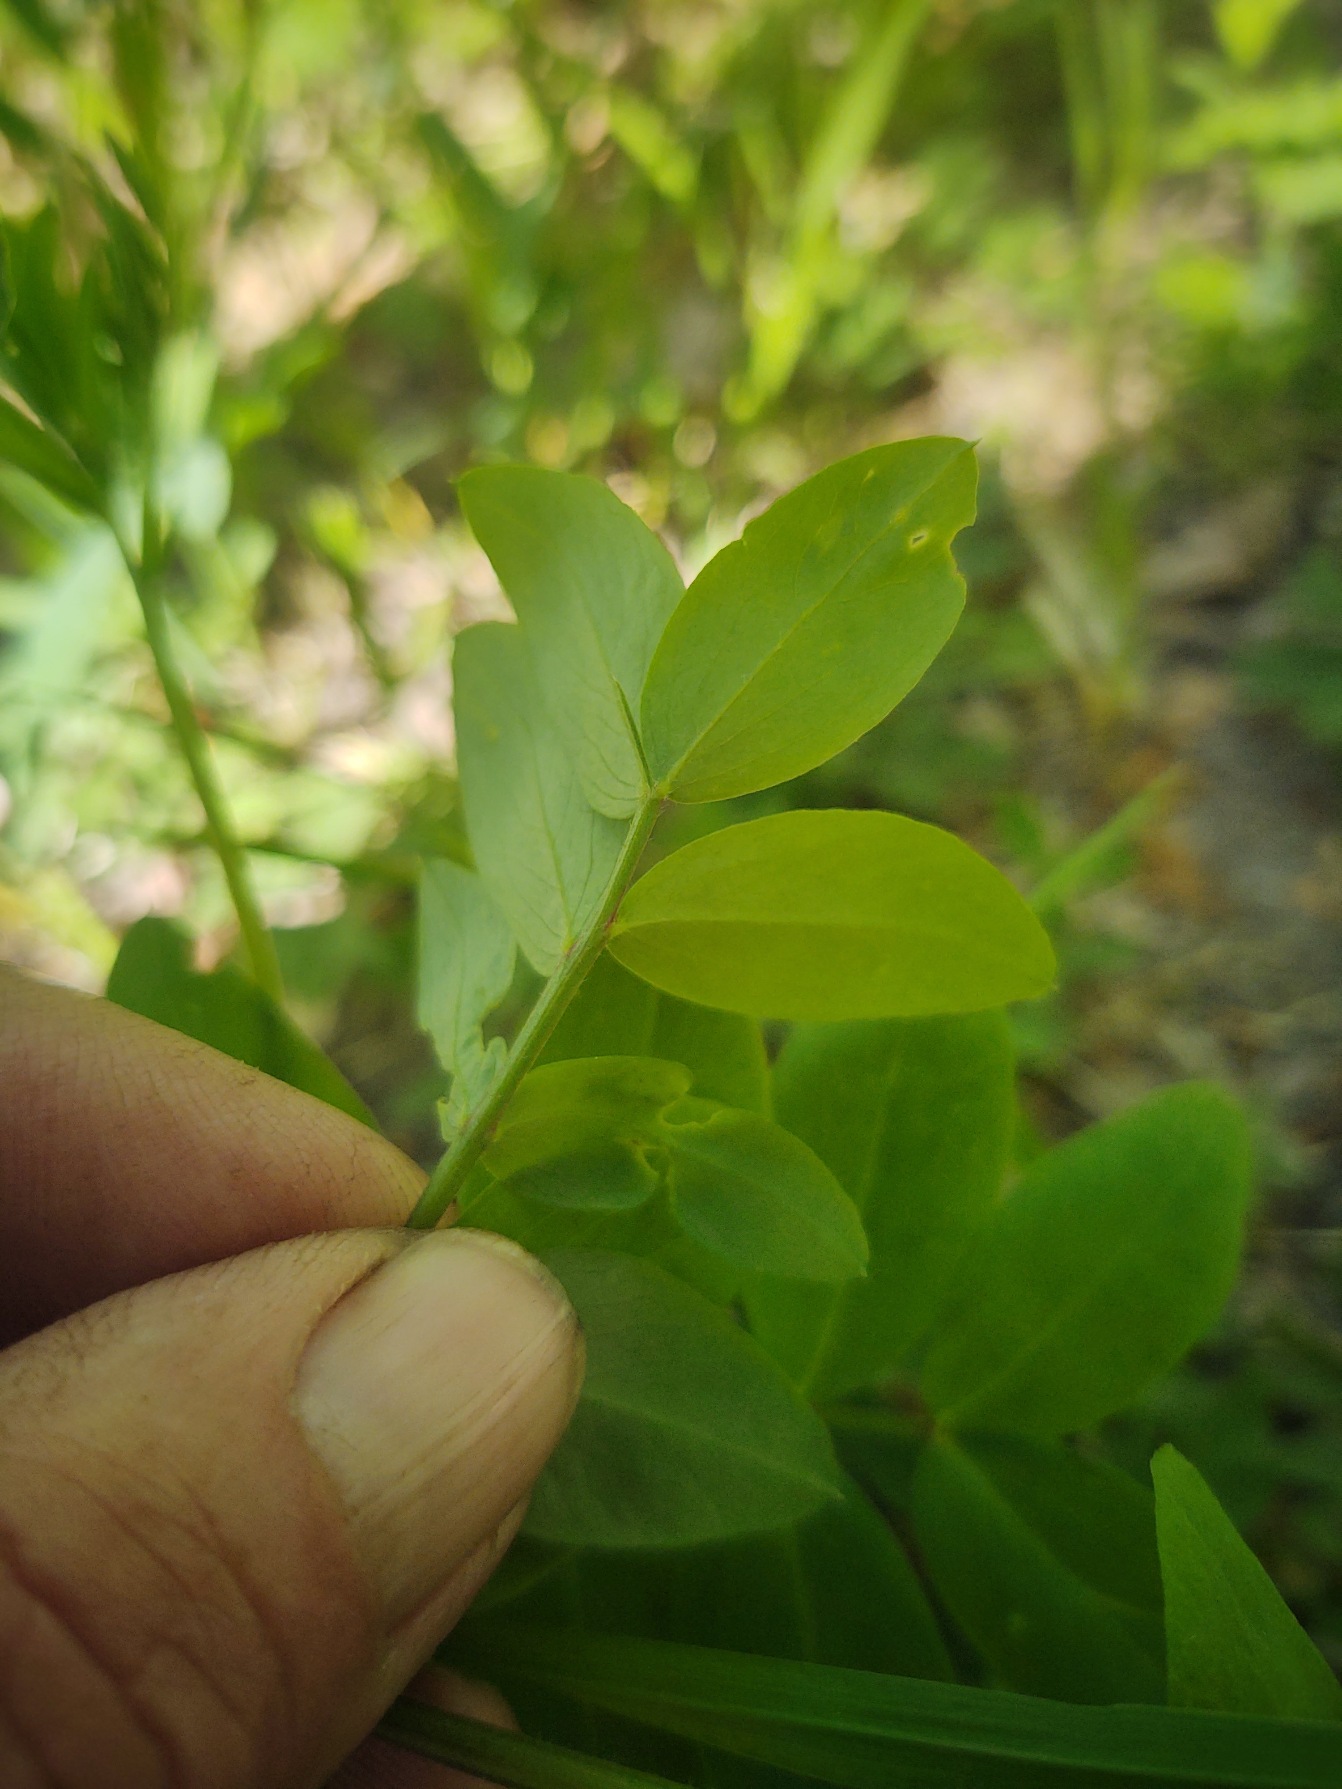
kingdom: Plantae
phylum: Tracheophyta
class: Magnoliopsida
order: Fabales
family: Fabaceae
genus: Lathyrus
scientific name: Lathyrus niger
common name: Sort fladbælg
